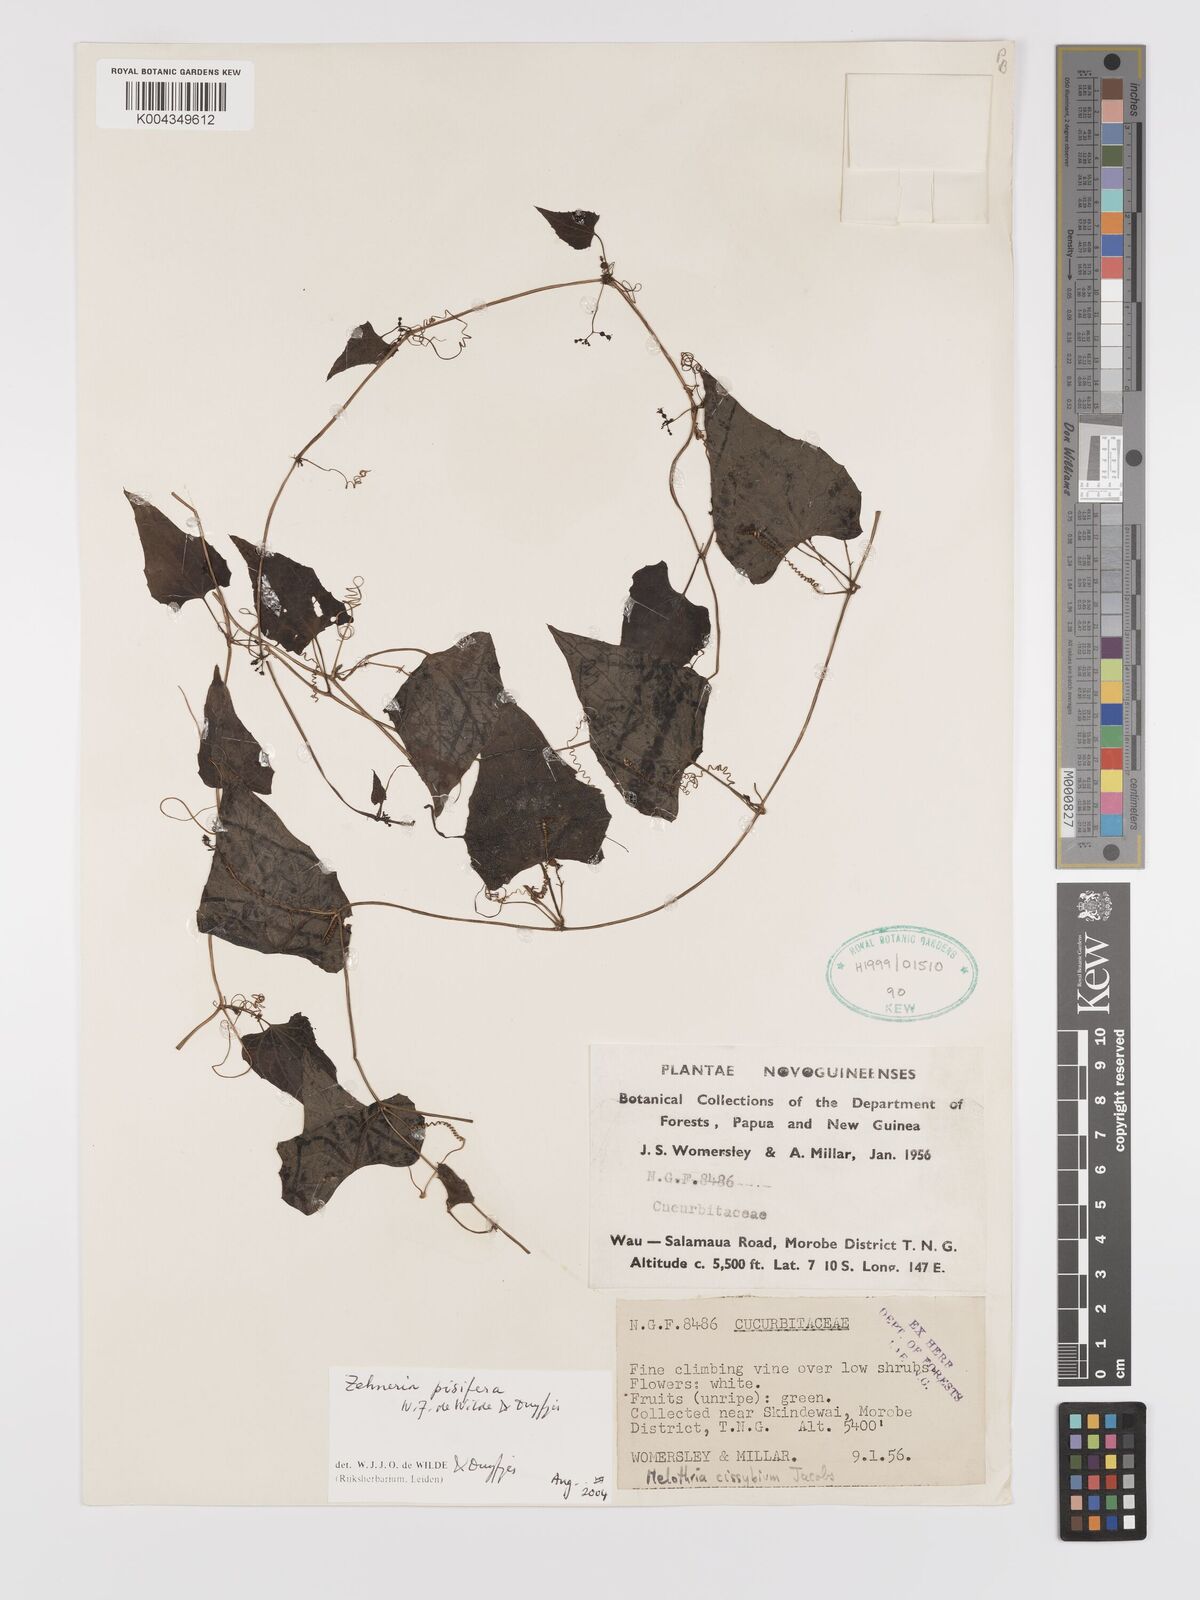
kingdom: Plantae
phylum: Tracheophyta
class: Magnoliopsida
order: Cucurbitales
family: Cucurbitaceae
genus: Zehneria
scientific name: Zehneria pisifera
